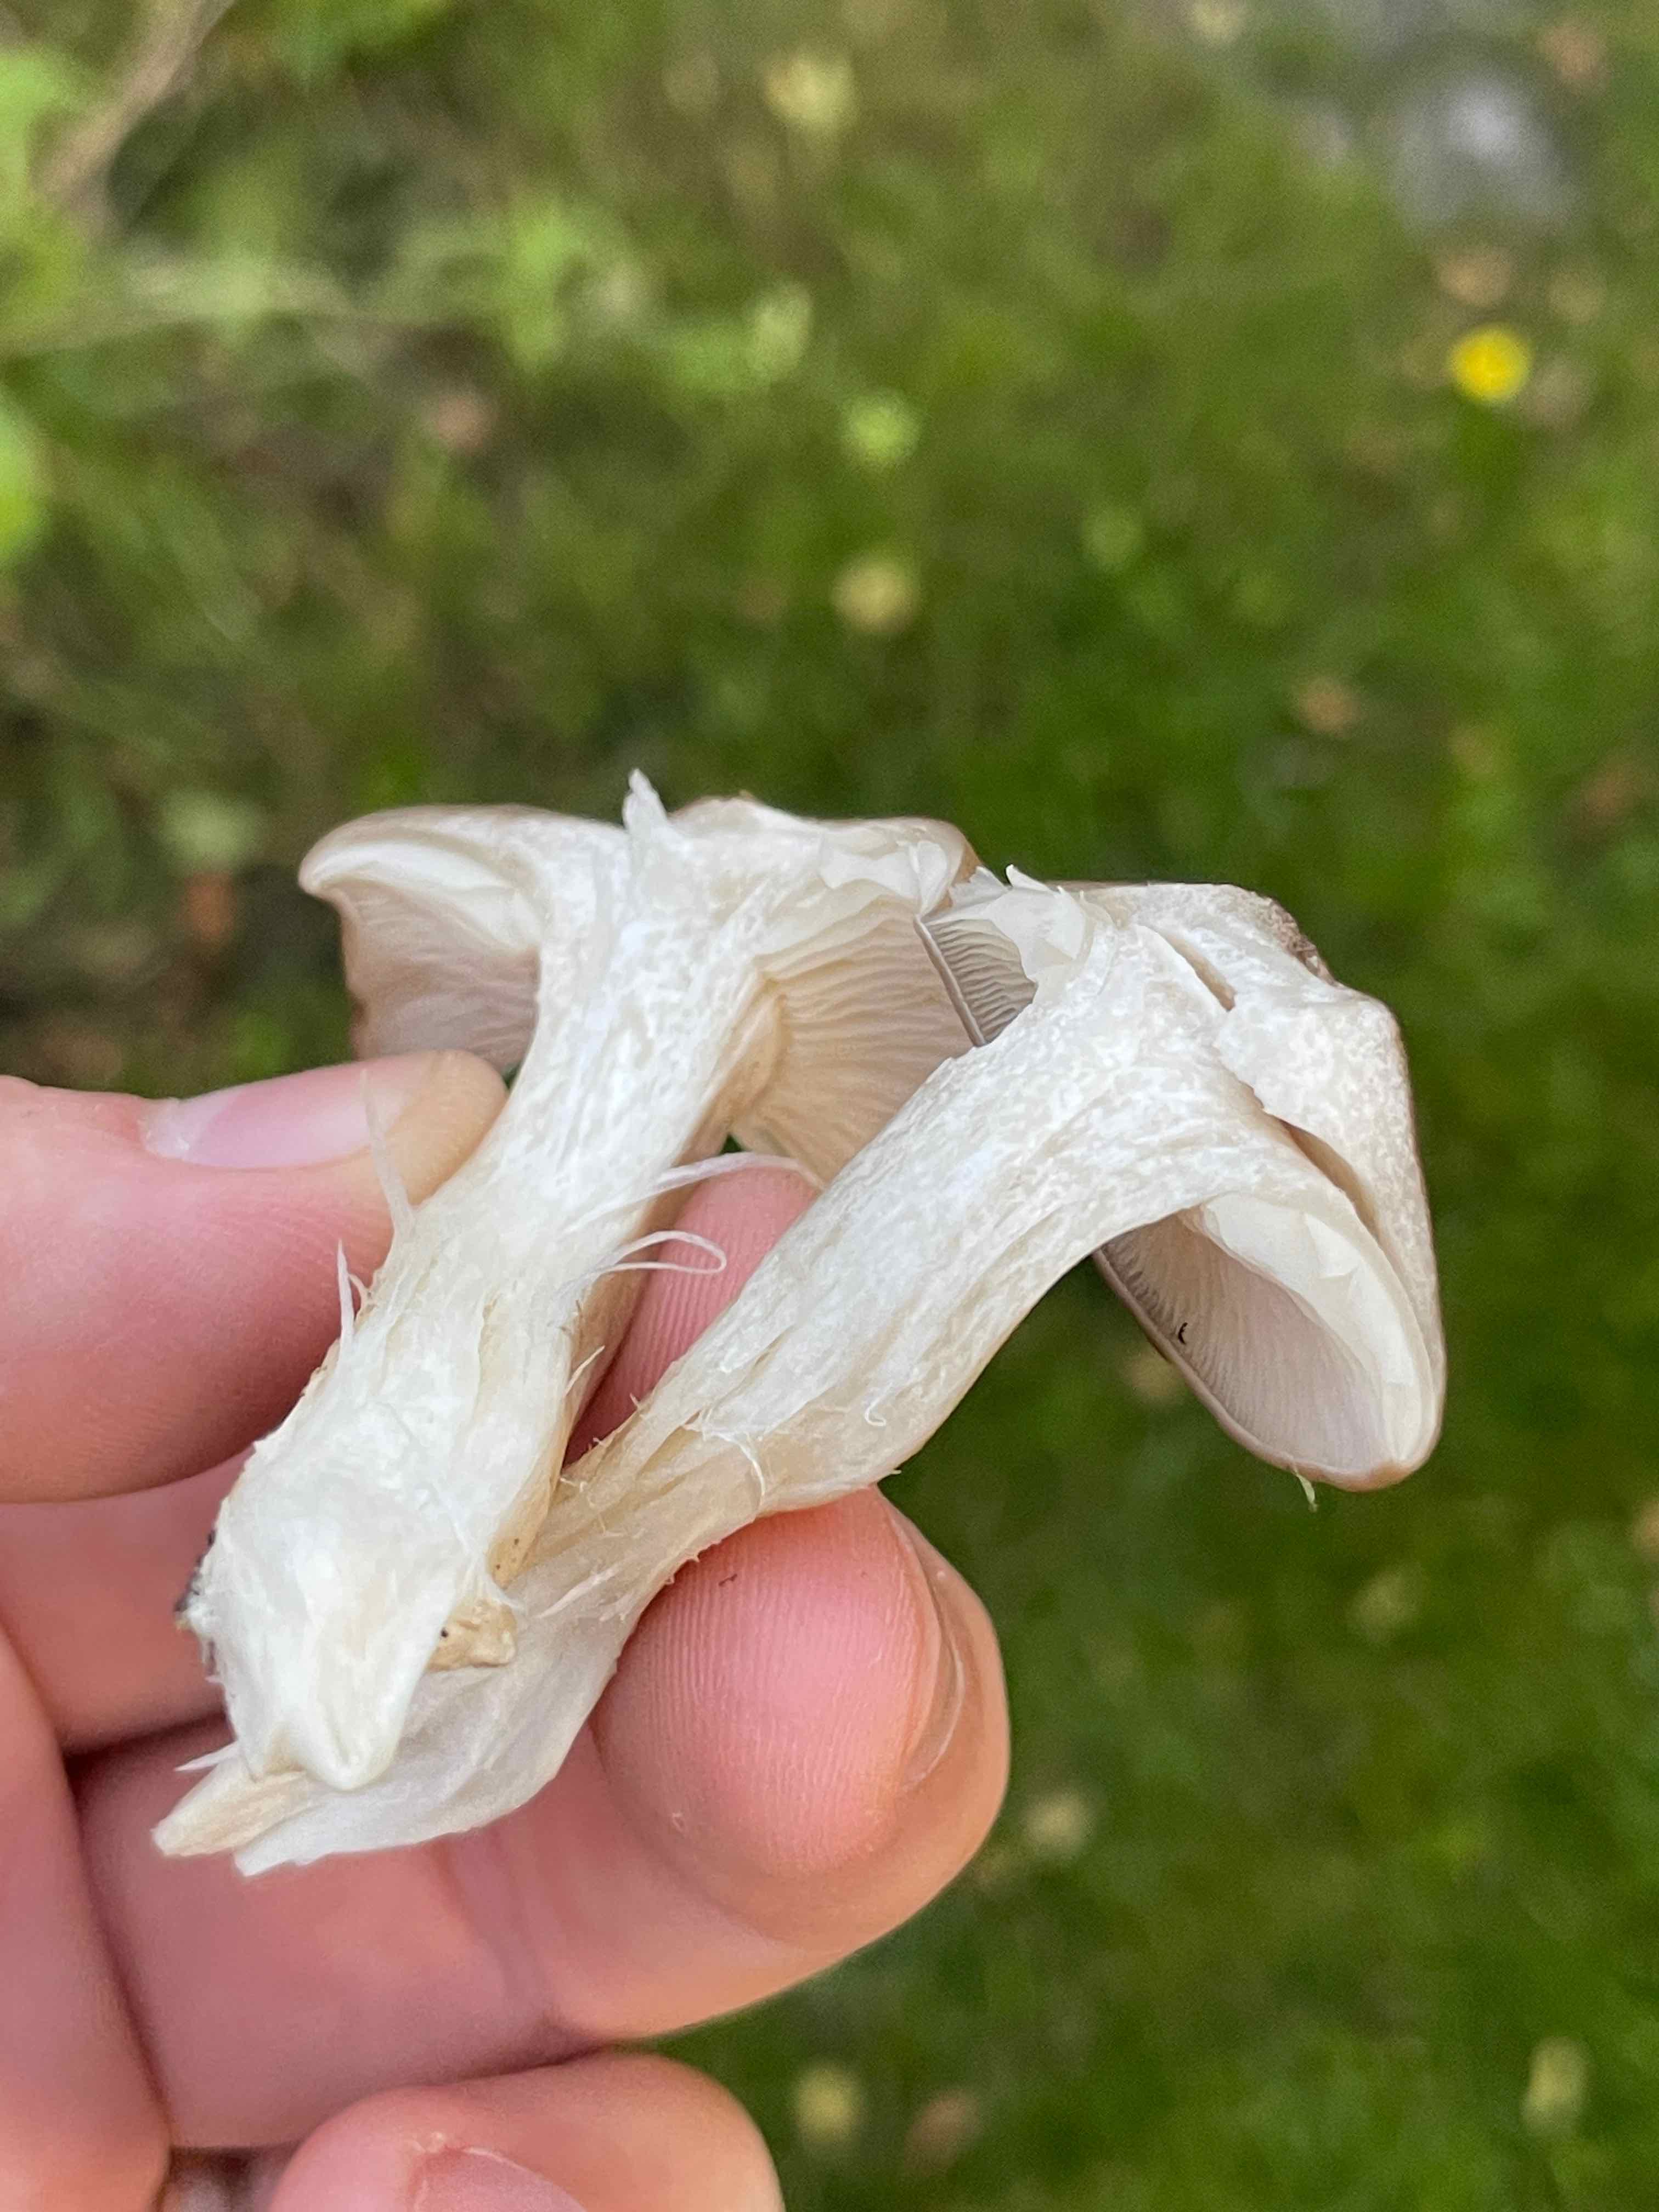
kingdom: Fungi
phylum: Basidiomycota
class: Agaricomycetes
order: Agaricales
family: Lyophyllaceae
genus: Lyophyllum
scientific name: Lyophyllum decastes
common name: røggrå gråblad
